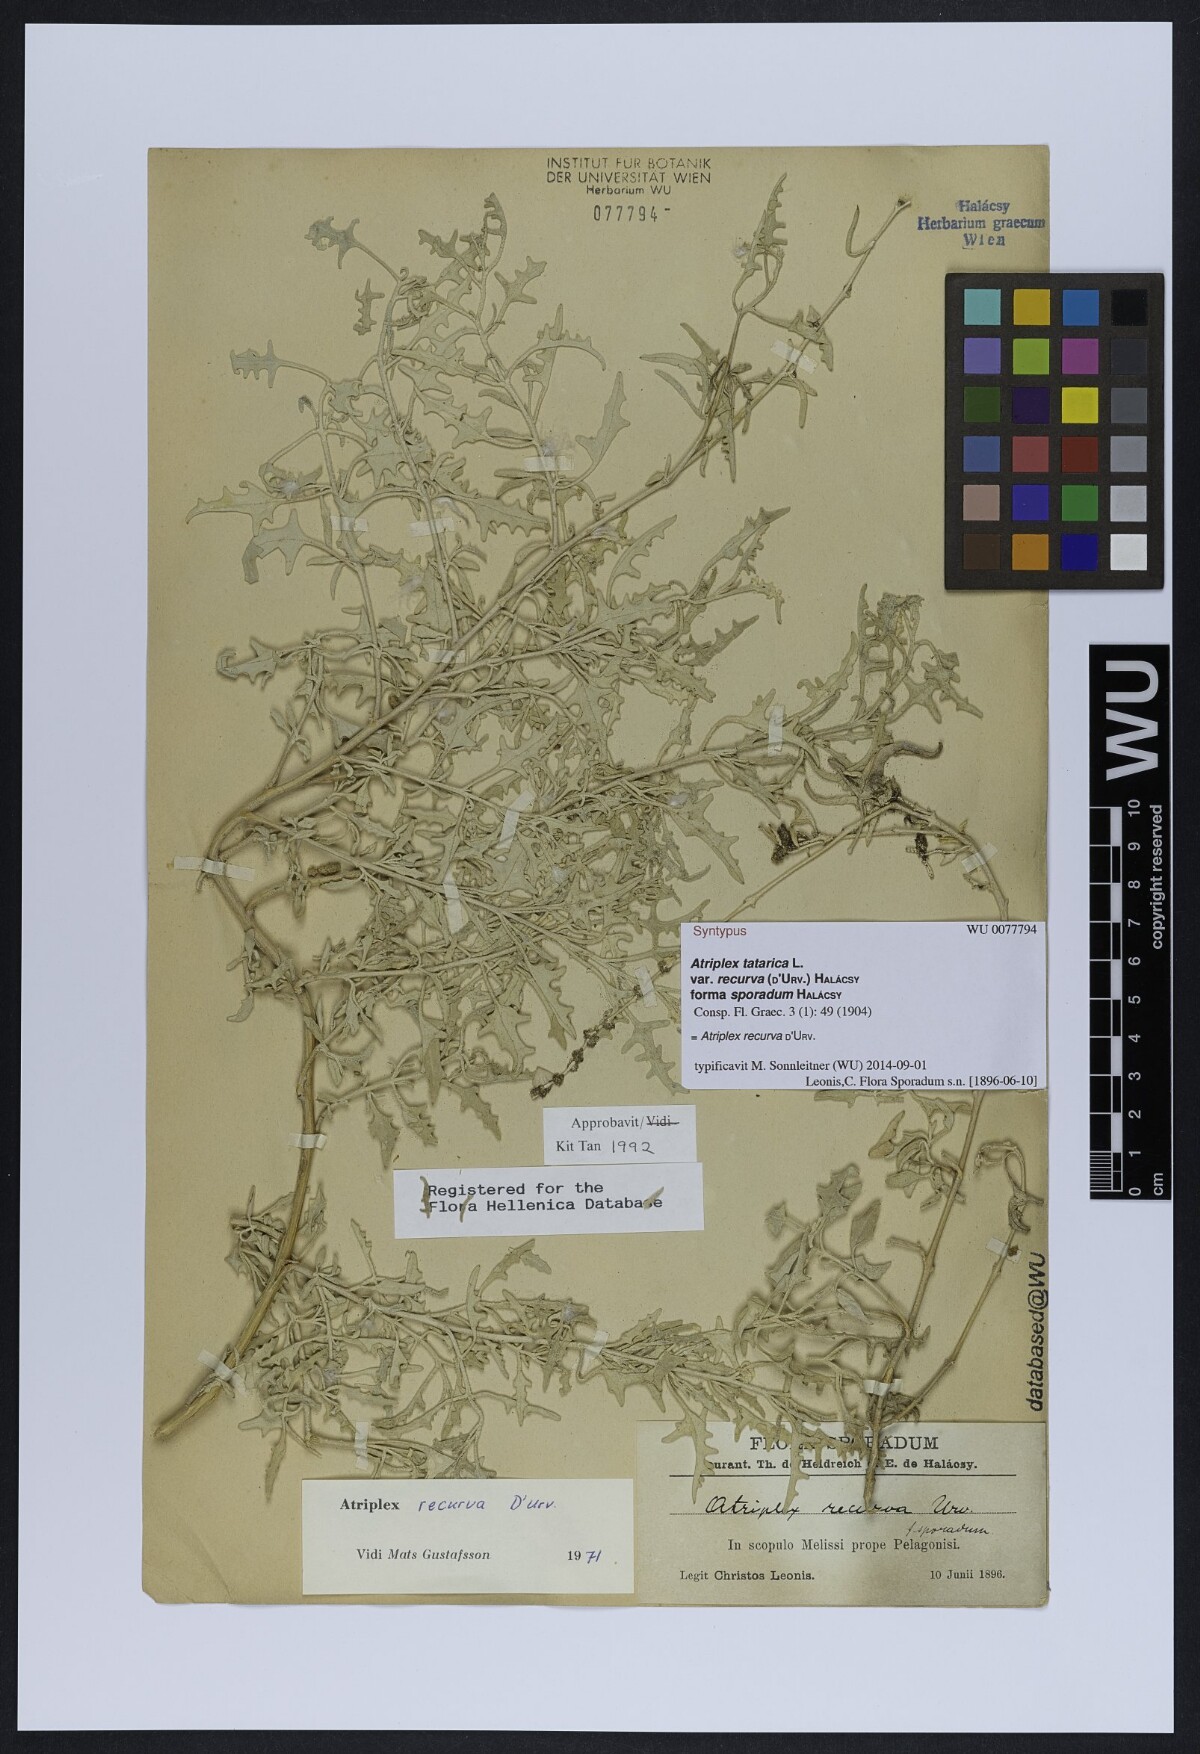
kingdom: Plantae
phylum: Tracheophyta
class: Magnoliopsida
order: Caryophyllales
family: Amaranthaceae
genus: Atriplex
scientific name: Atriplex recurva
